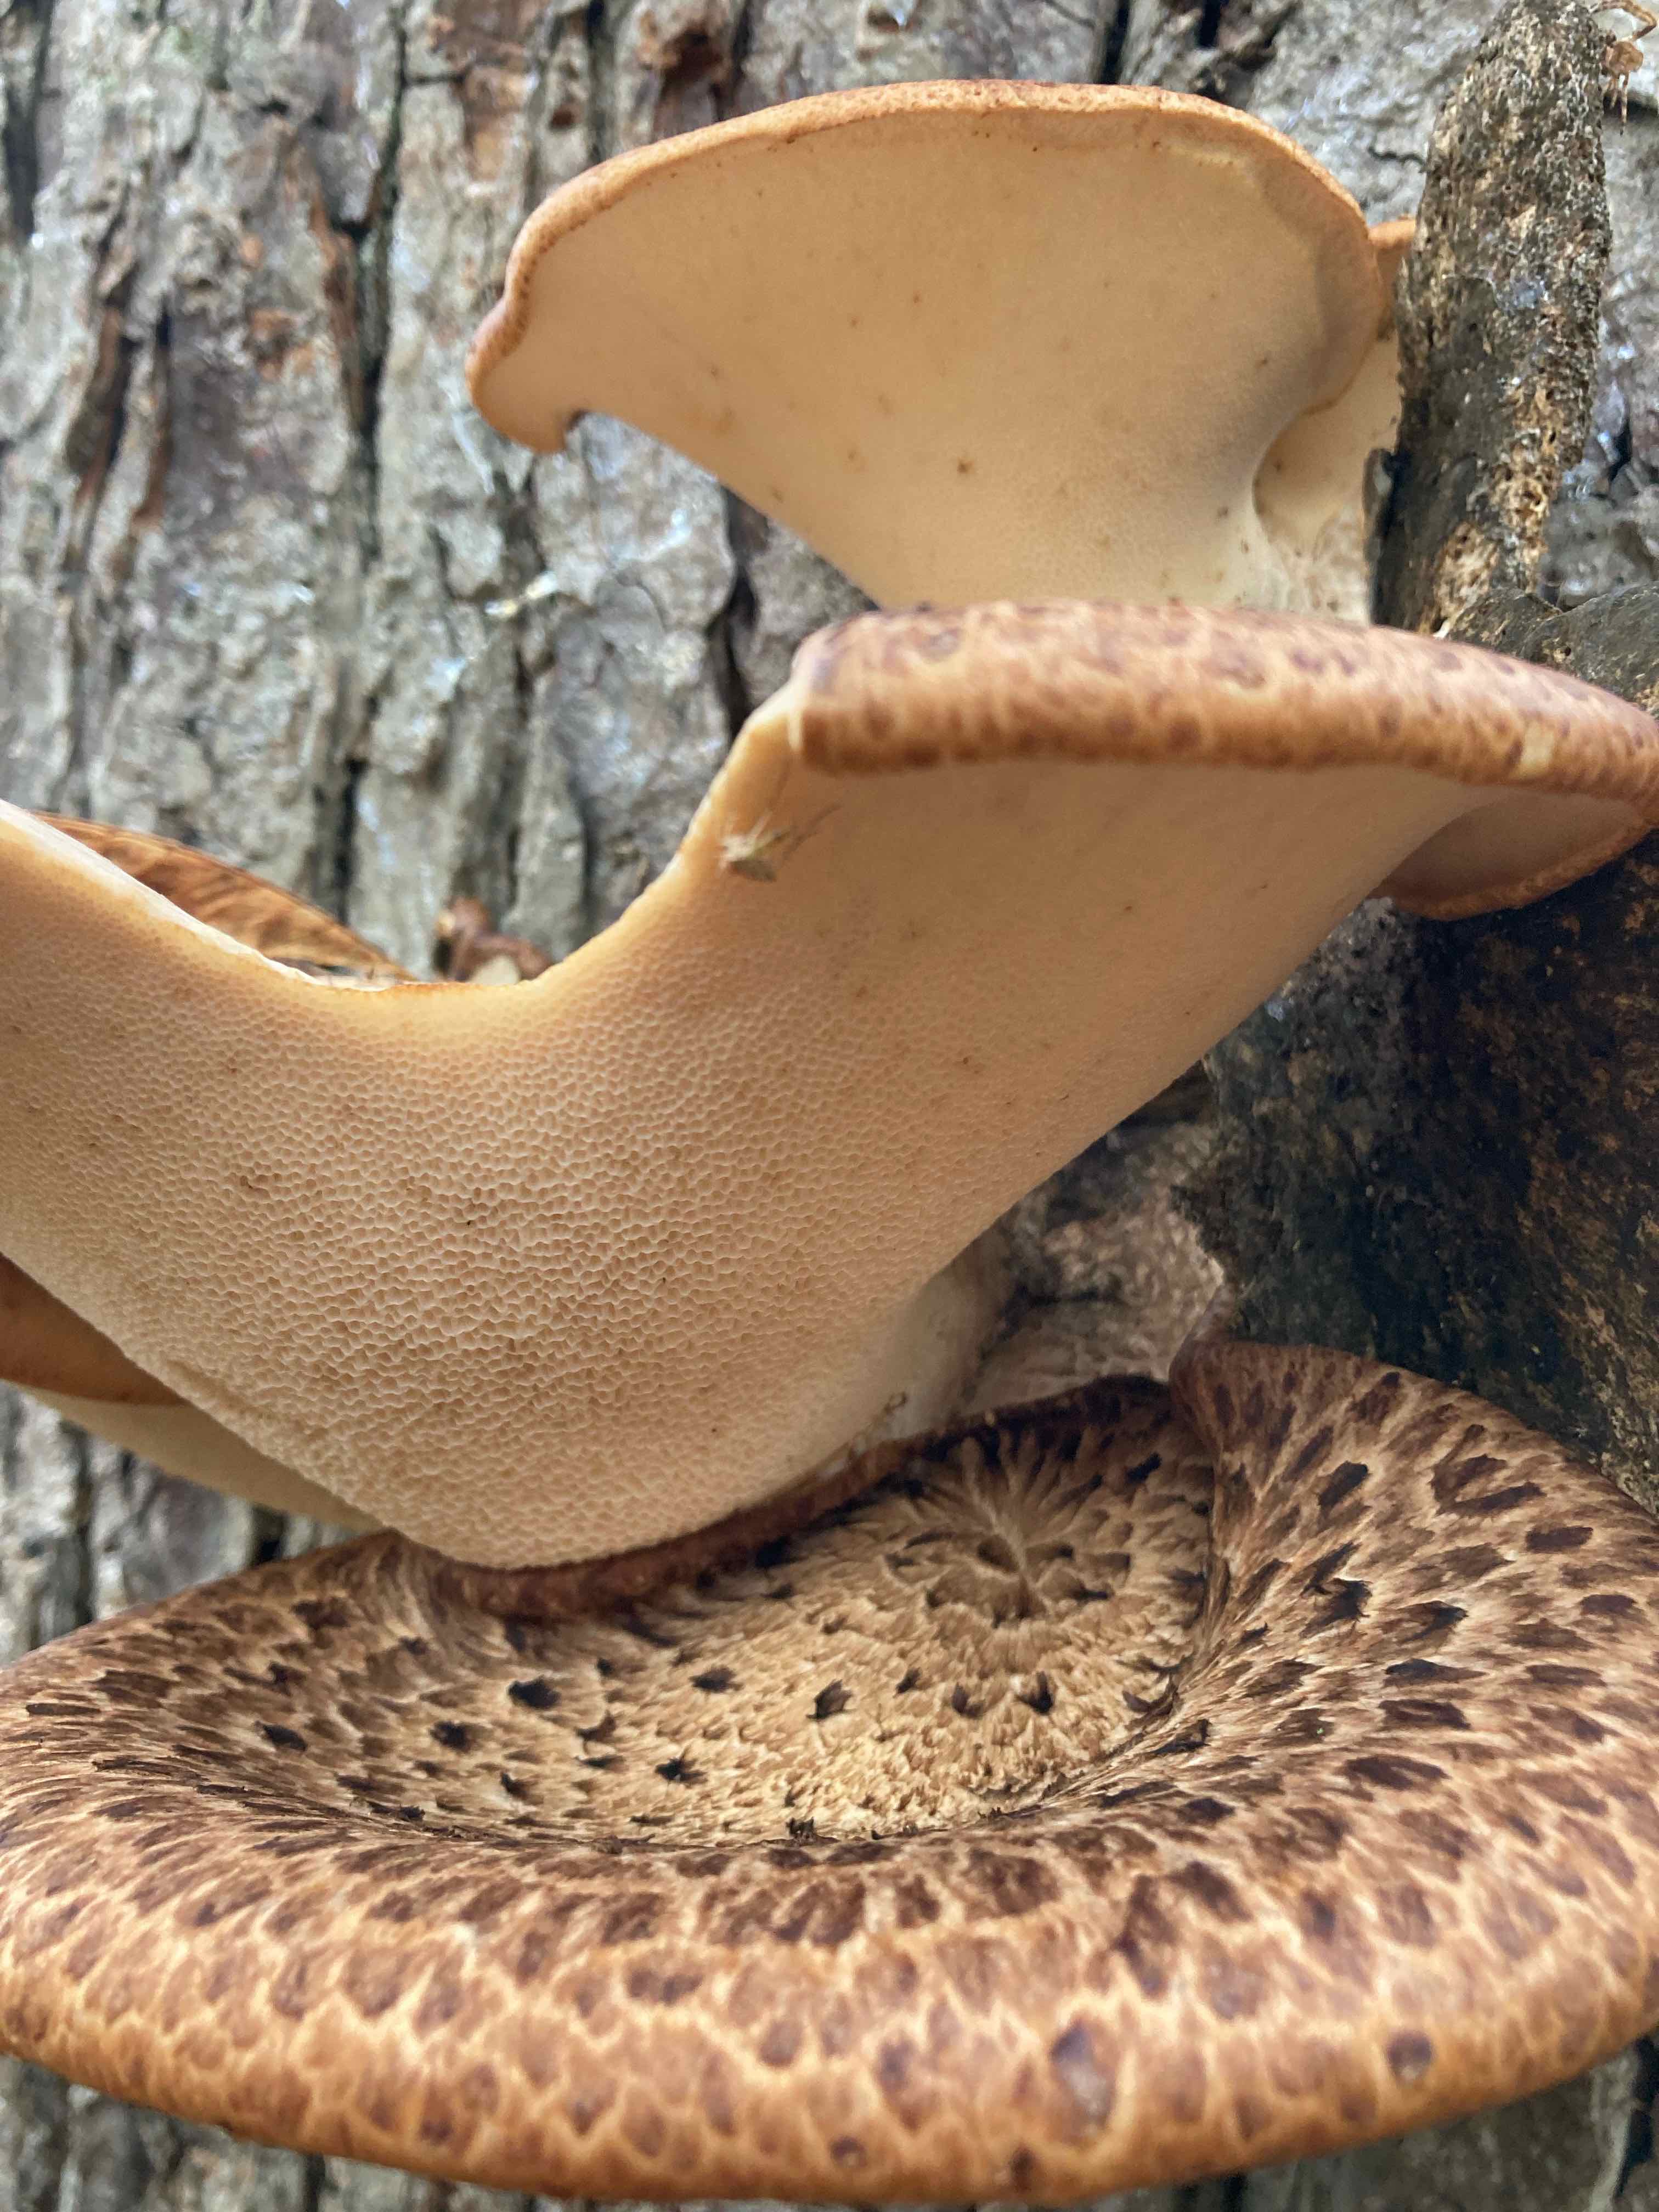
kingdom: Fungi
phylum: Basidiomycota
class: Agaricomycetes
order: Polyporales
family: Polyporaceae
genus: Cerioporus
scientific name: Cerioporus squamosus
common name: skællet stilkporesvamp
